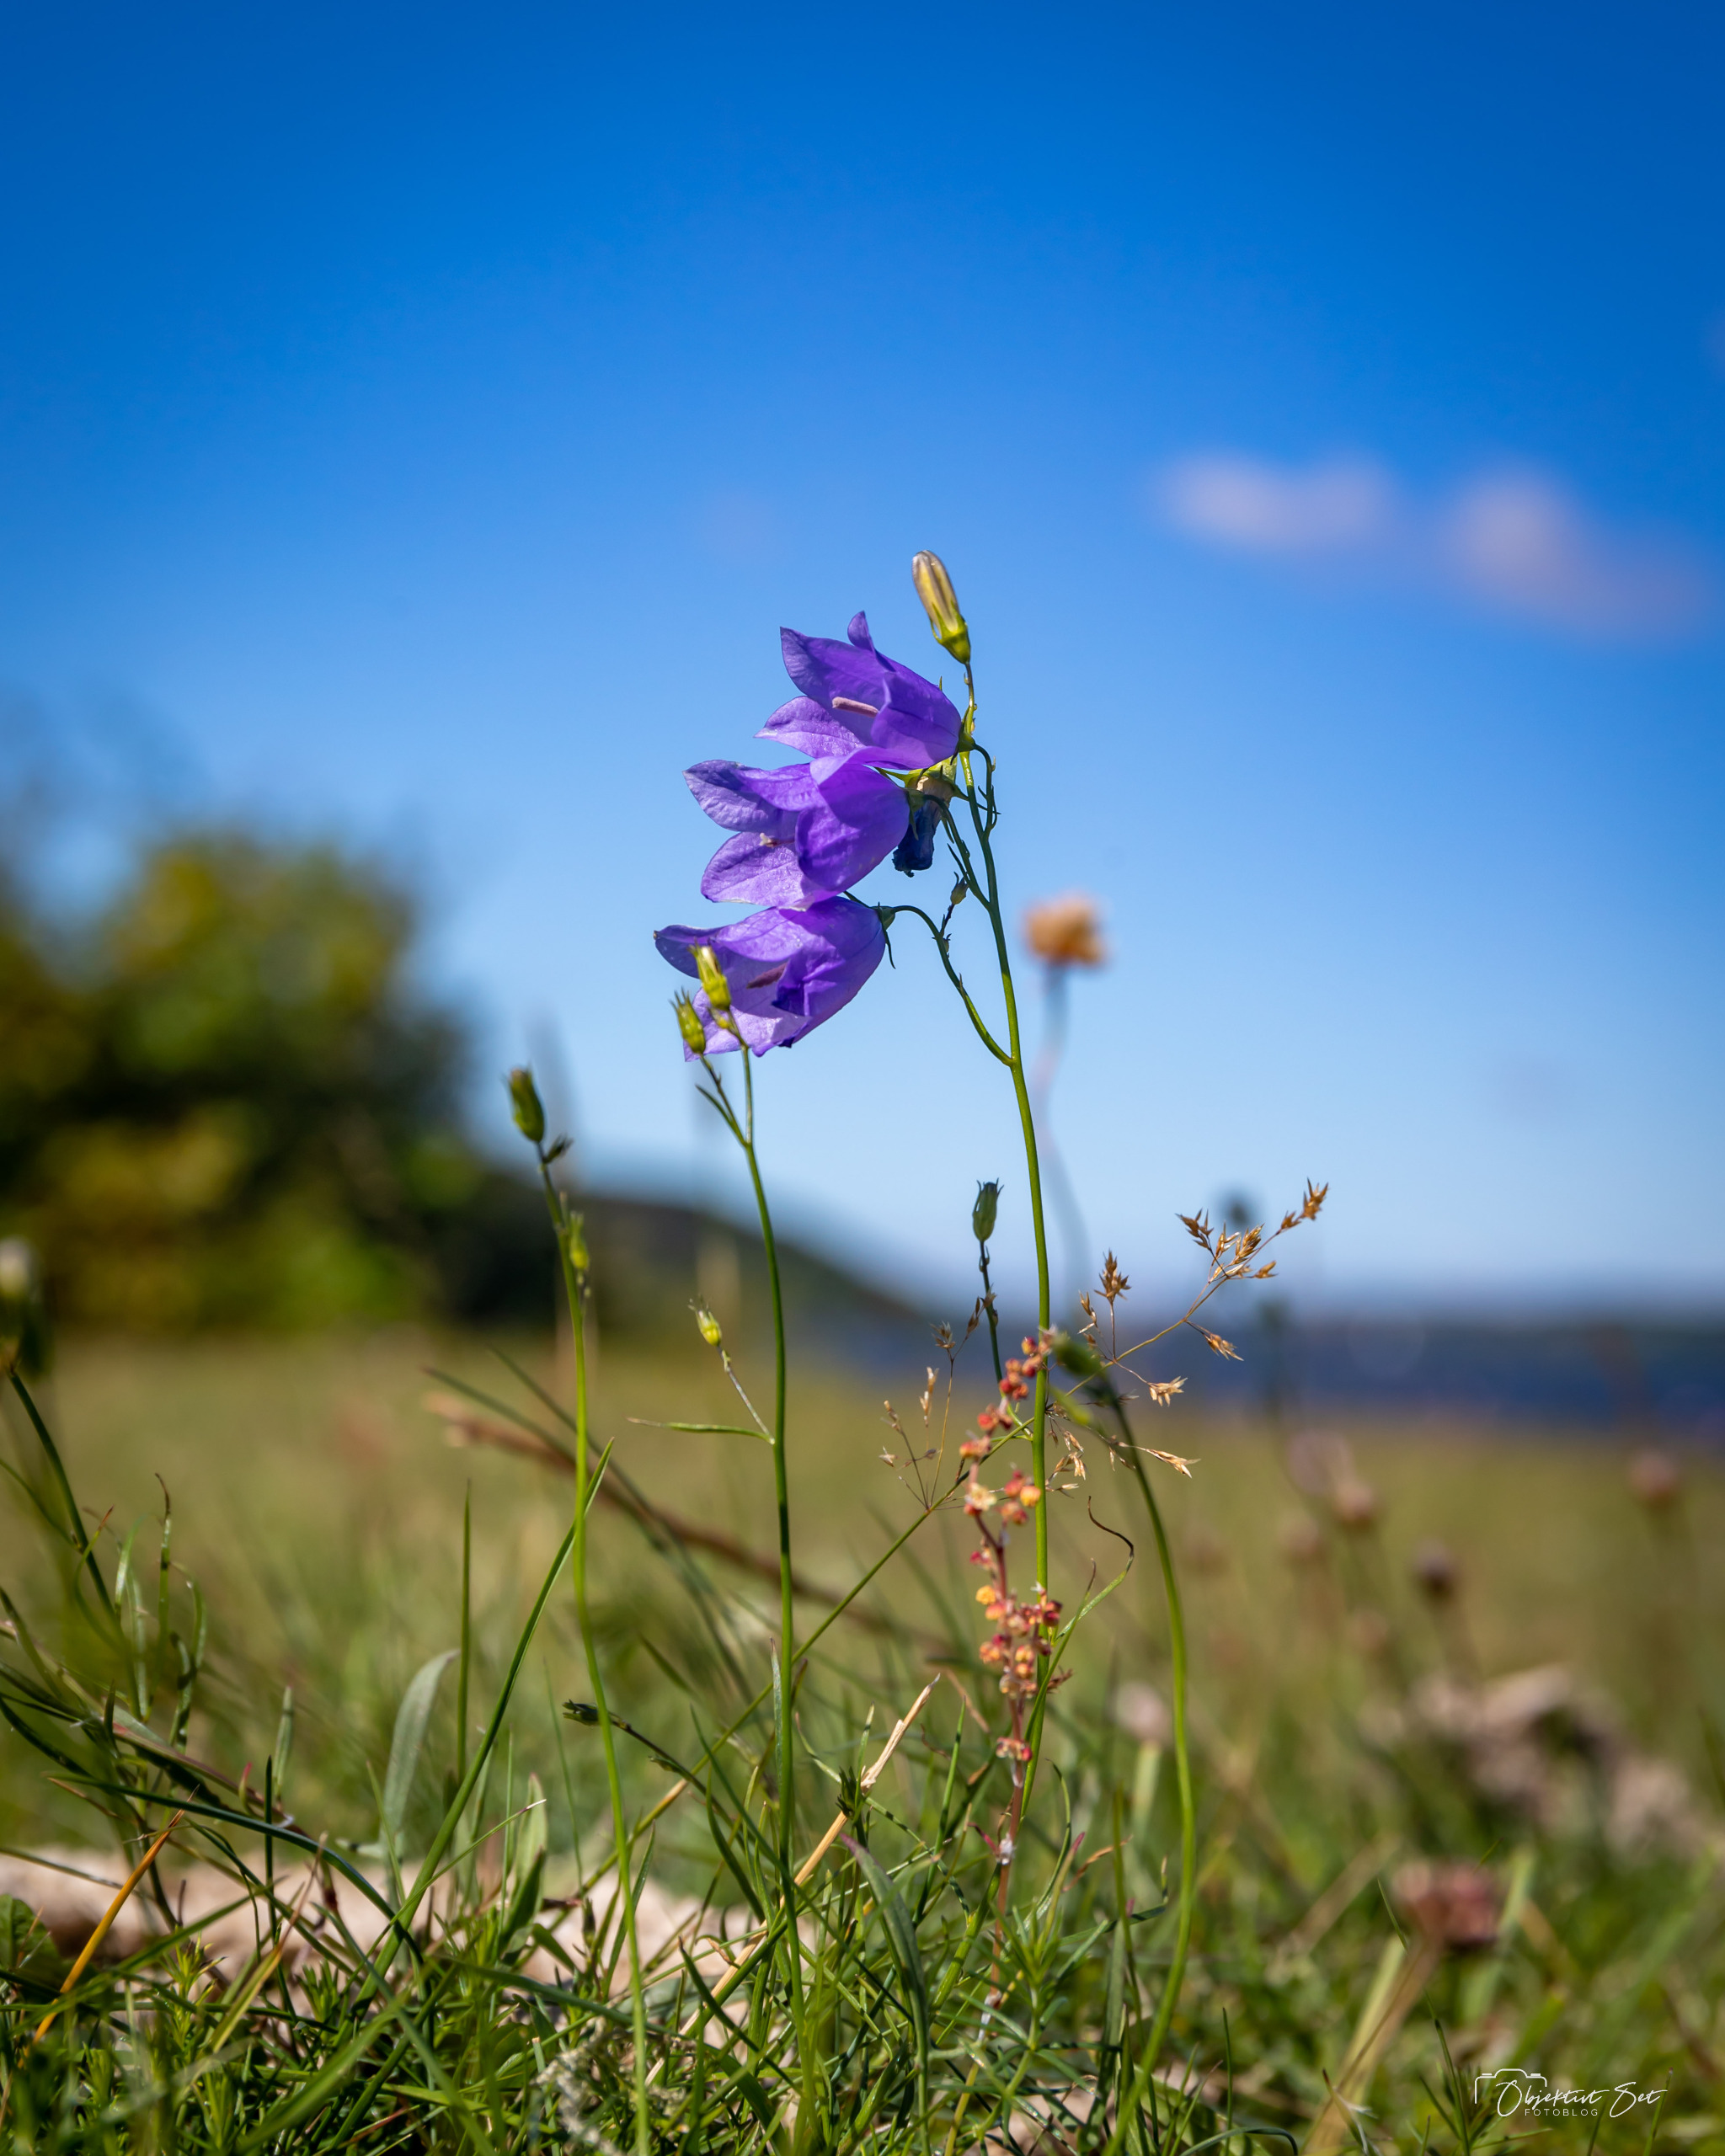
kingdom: Plantae
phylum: Tracheophyta
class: Magnoliopsida
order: Asterales
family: Campanulaceae
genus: Campanula
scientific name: Campanula rotundifolia
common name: Liden klokke
